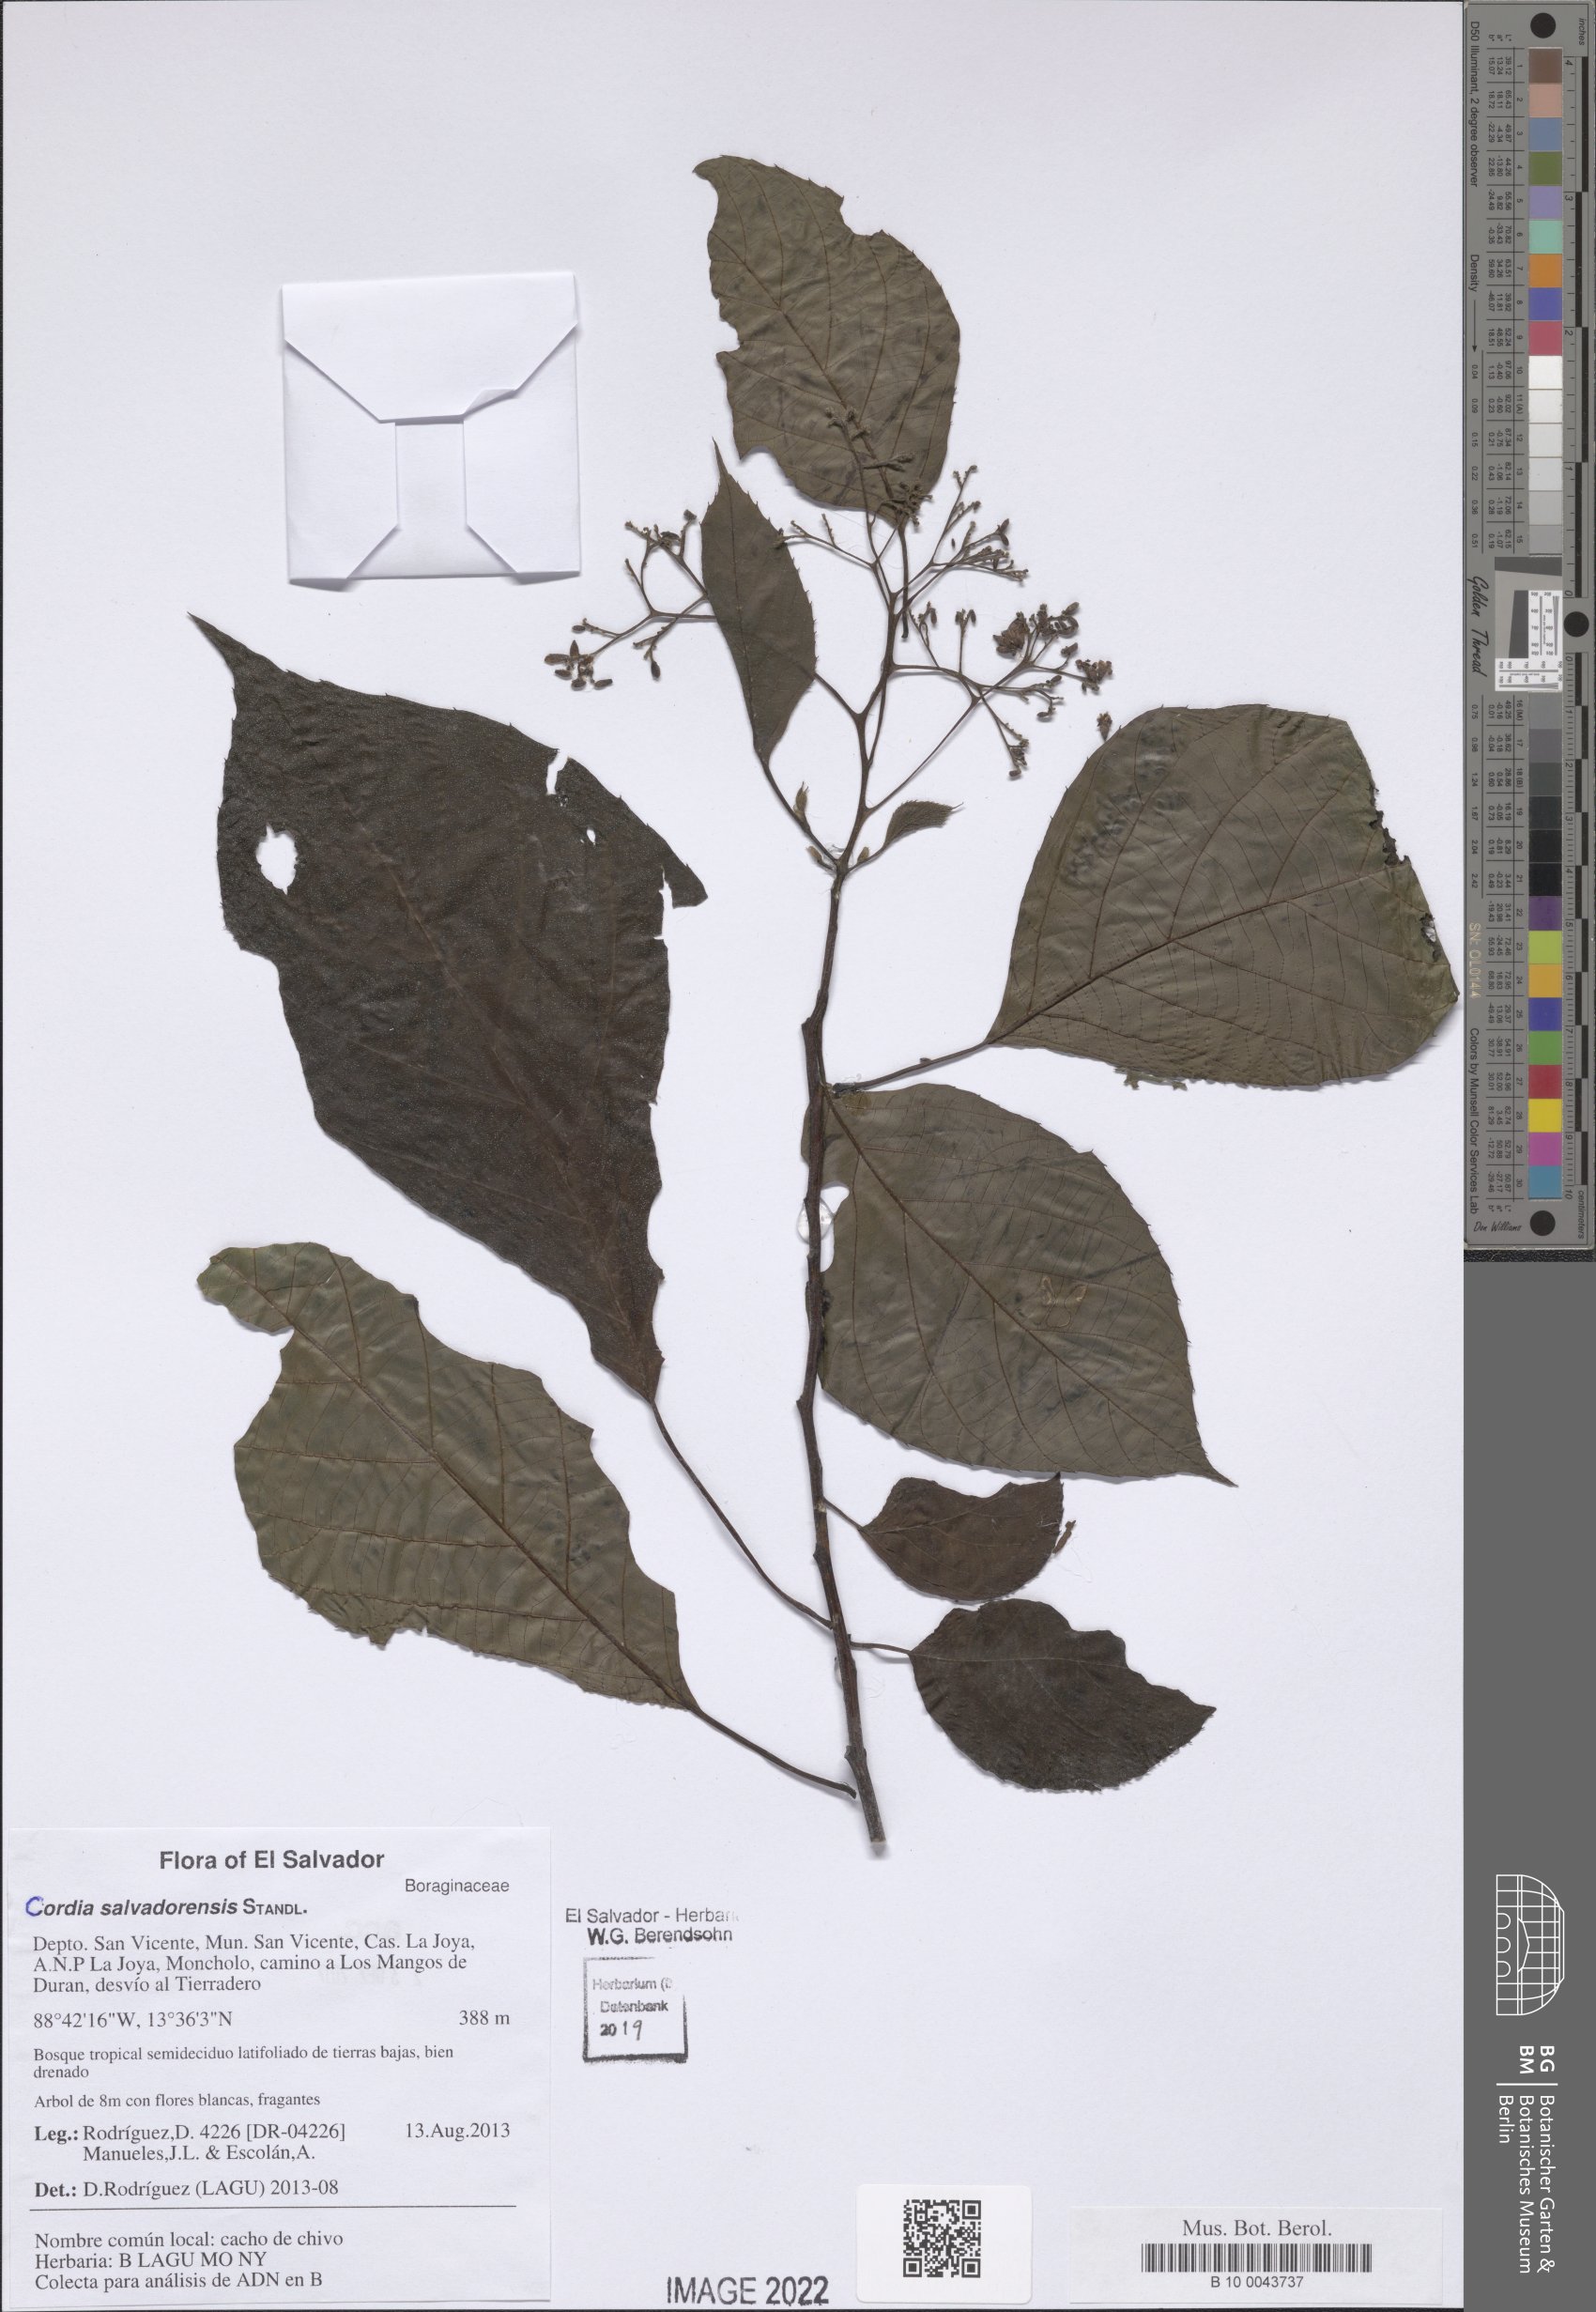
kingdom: Plantae
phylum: Tracheophyta
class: Magnoliopsida
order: Boraginales
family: Cordiaceae
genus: Cordia
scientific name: Cordia salvadorensis
